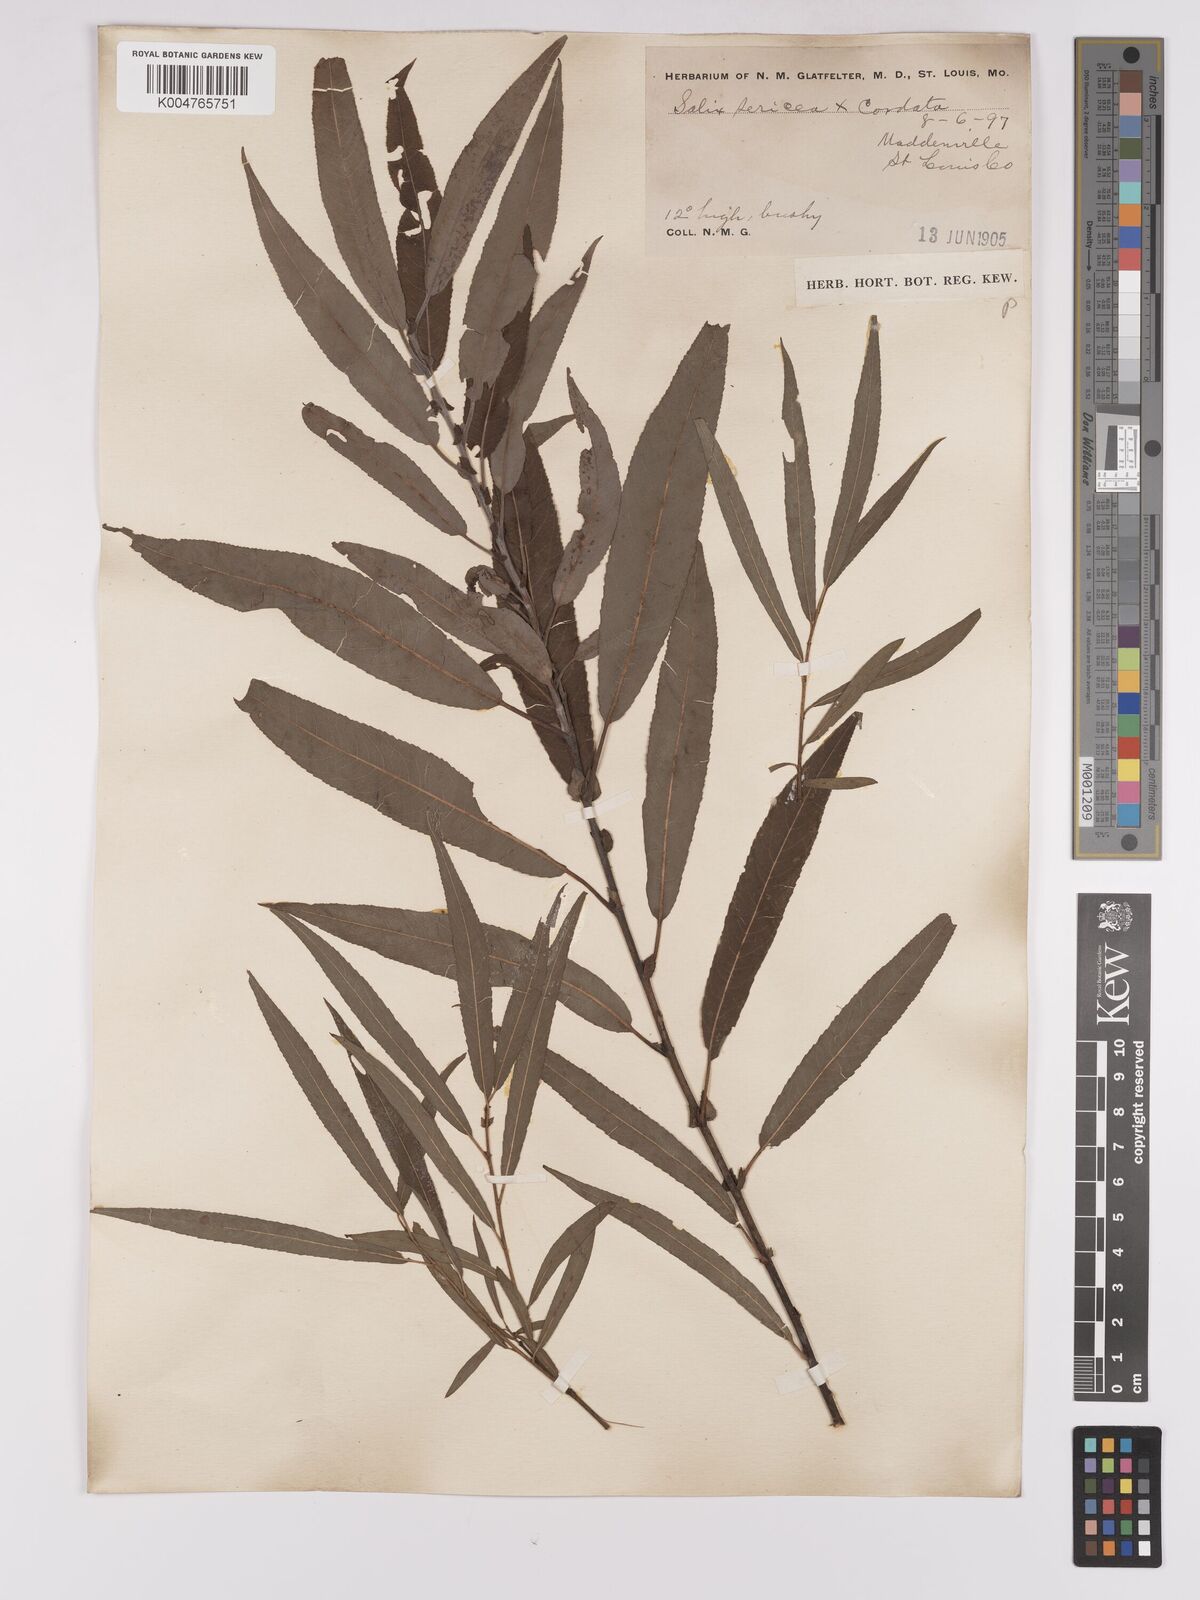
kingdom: Plantae
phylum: Tracheophyta
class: Magnoliopsida
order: Malpighiales
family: Salicaceae
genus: Salix
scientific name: Salix cordata
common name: Heart-leaf willow
